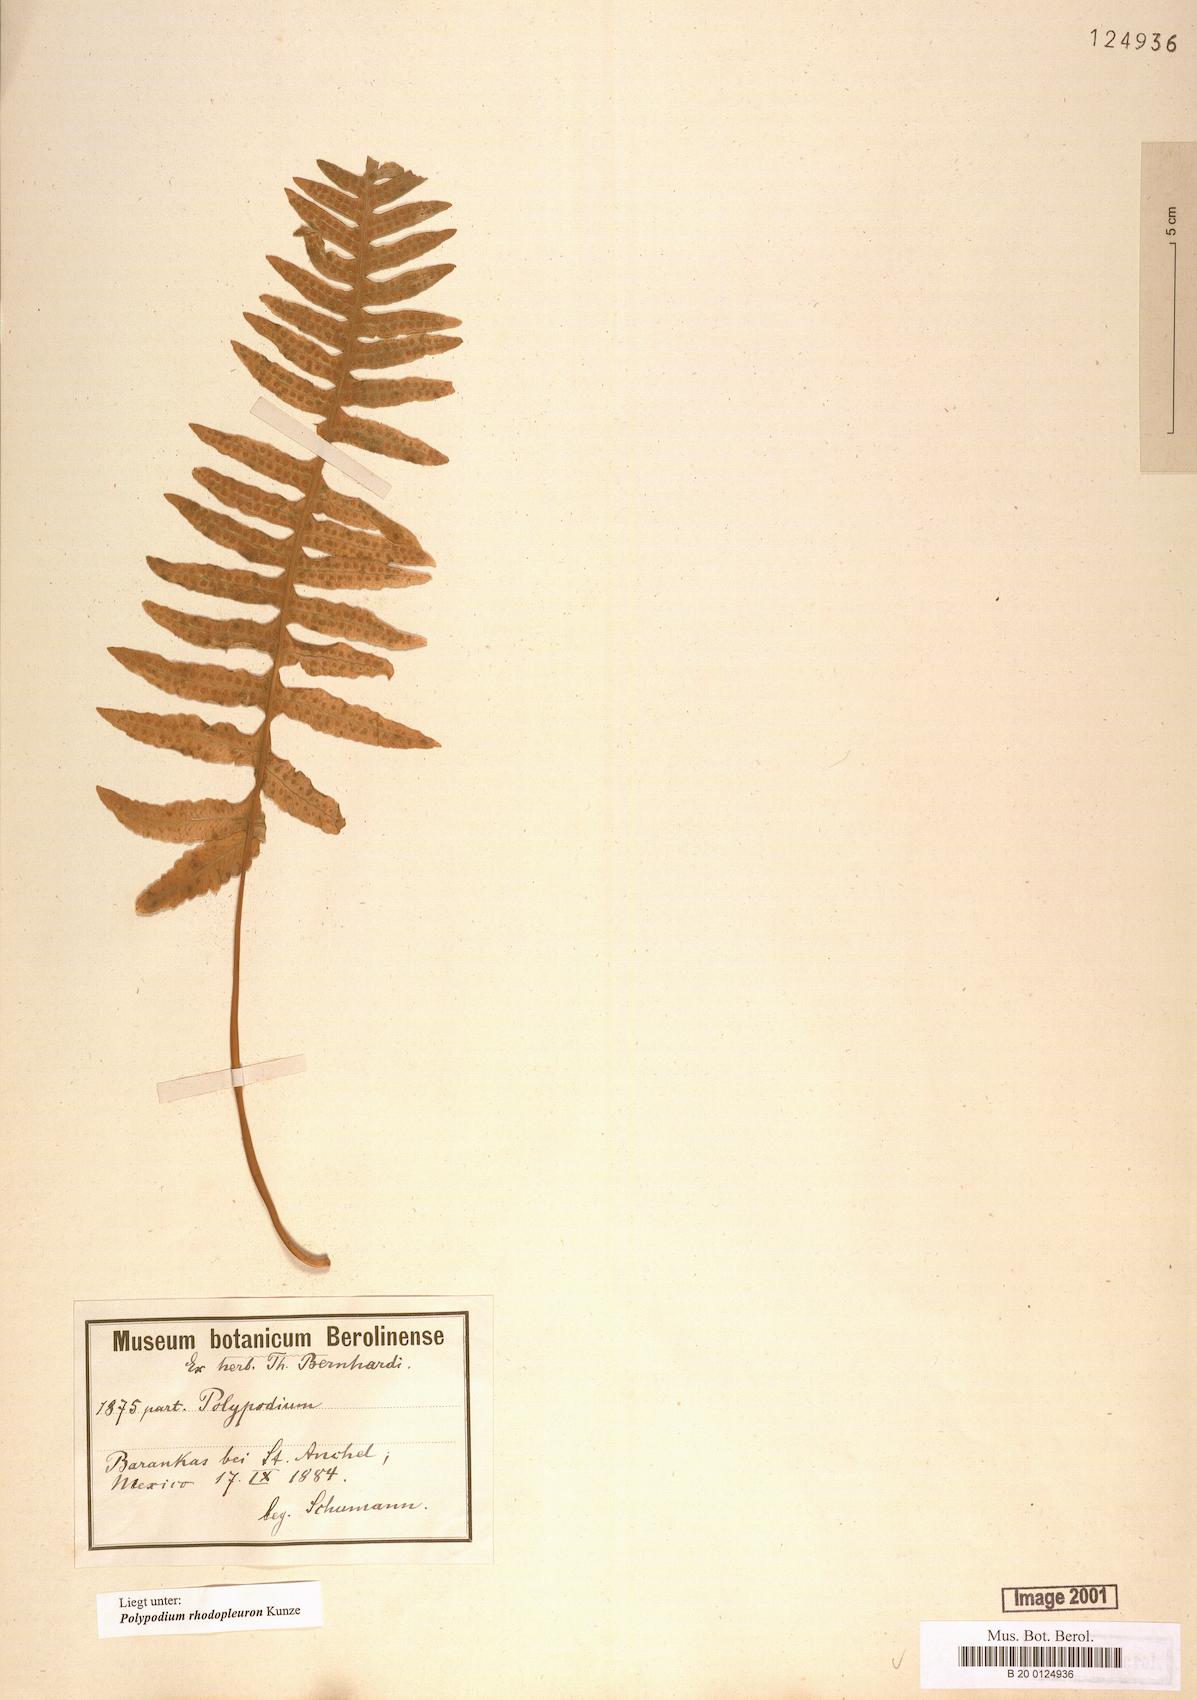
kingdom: Plantae
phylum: Tracheophyta
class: Polypodiopsida
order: Polypodiales
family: Polypodiaceae
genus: Polypodium
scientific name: Polypodium rhodopleuron
